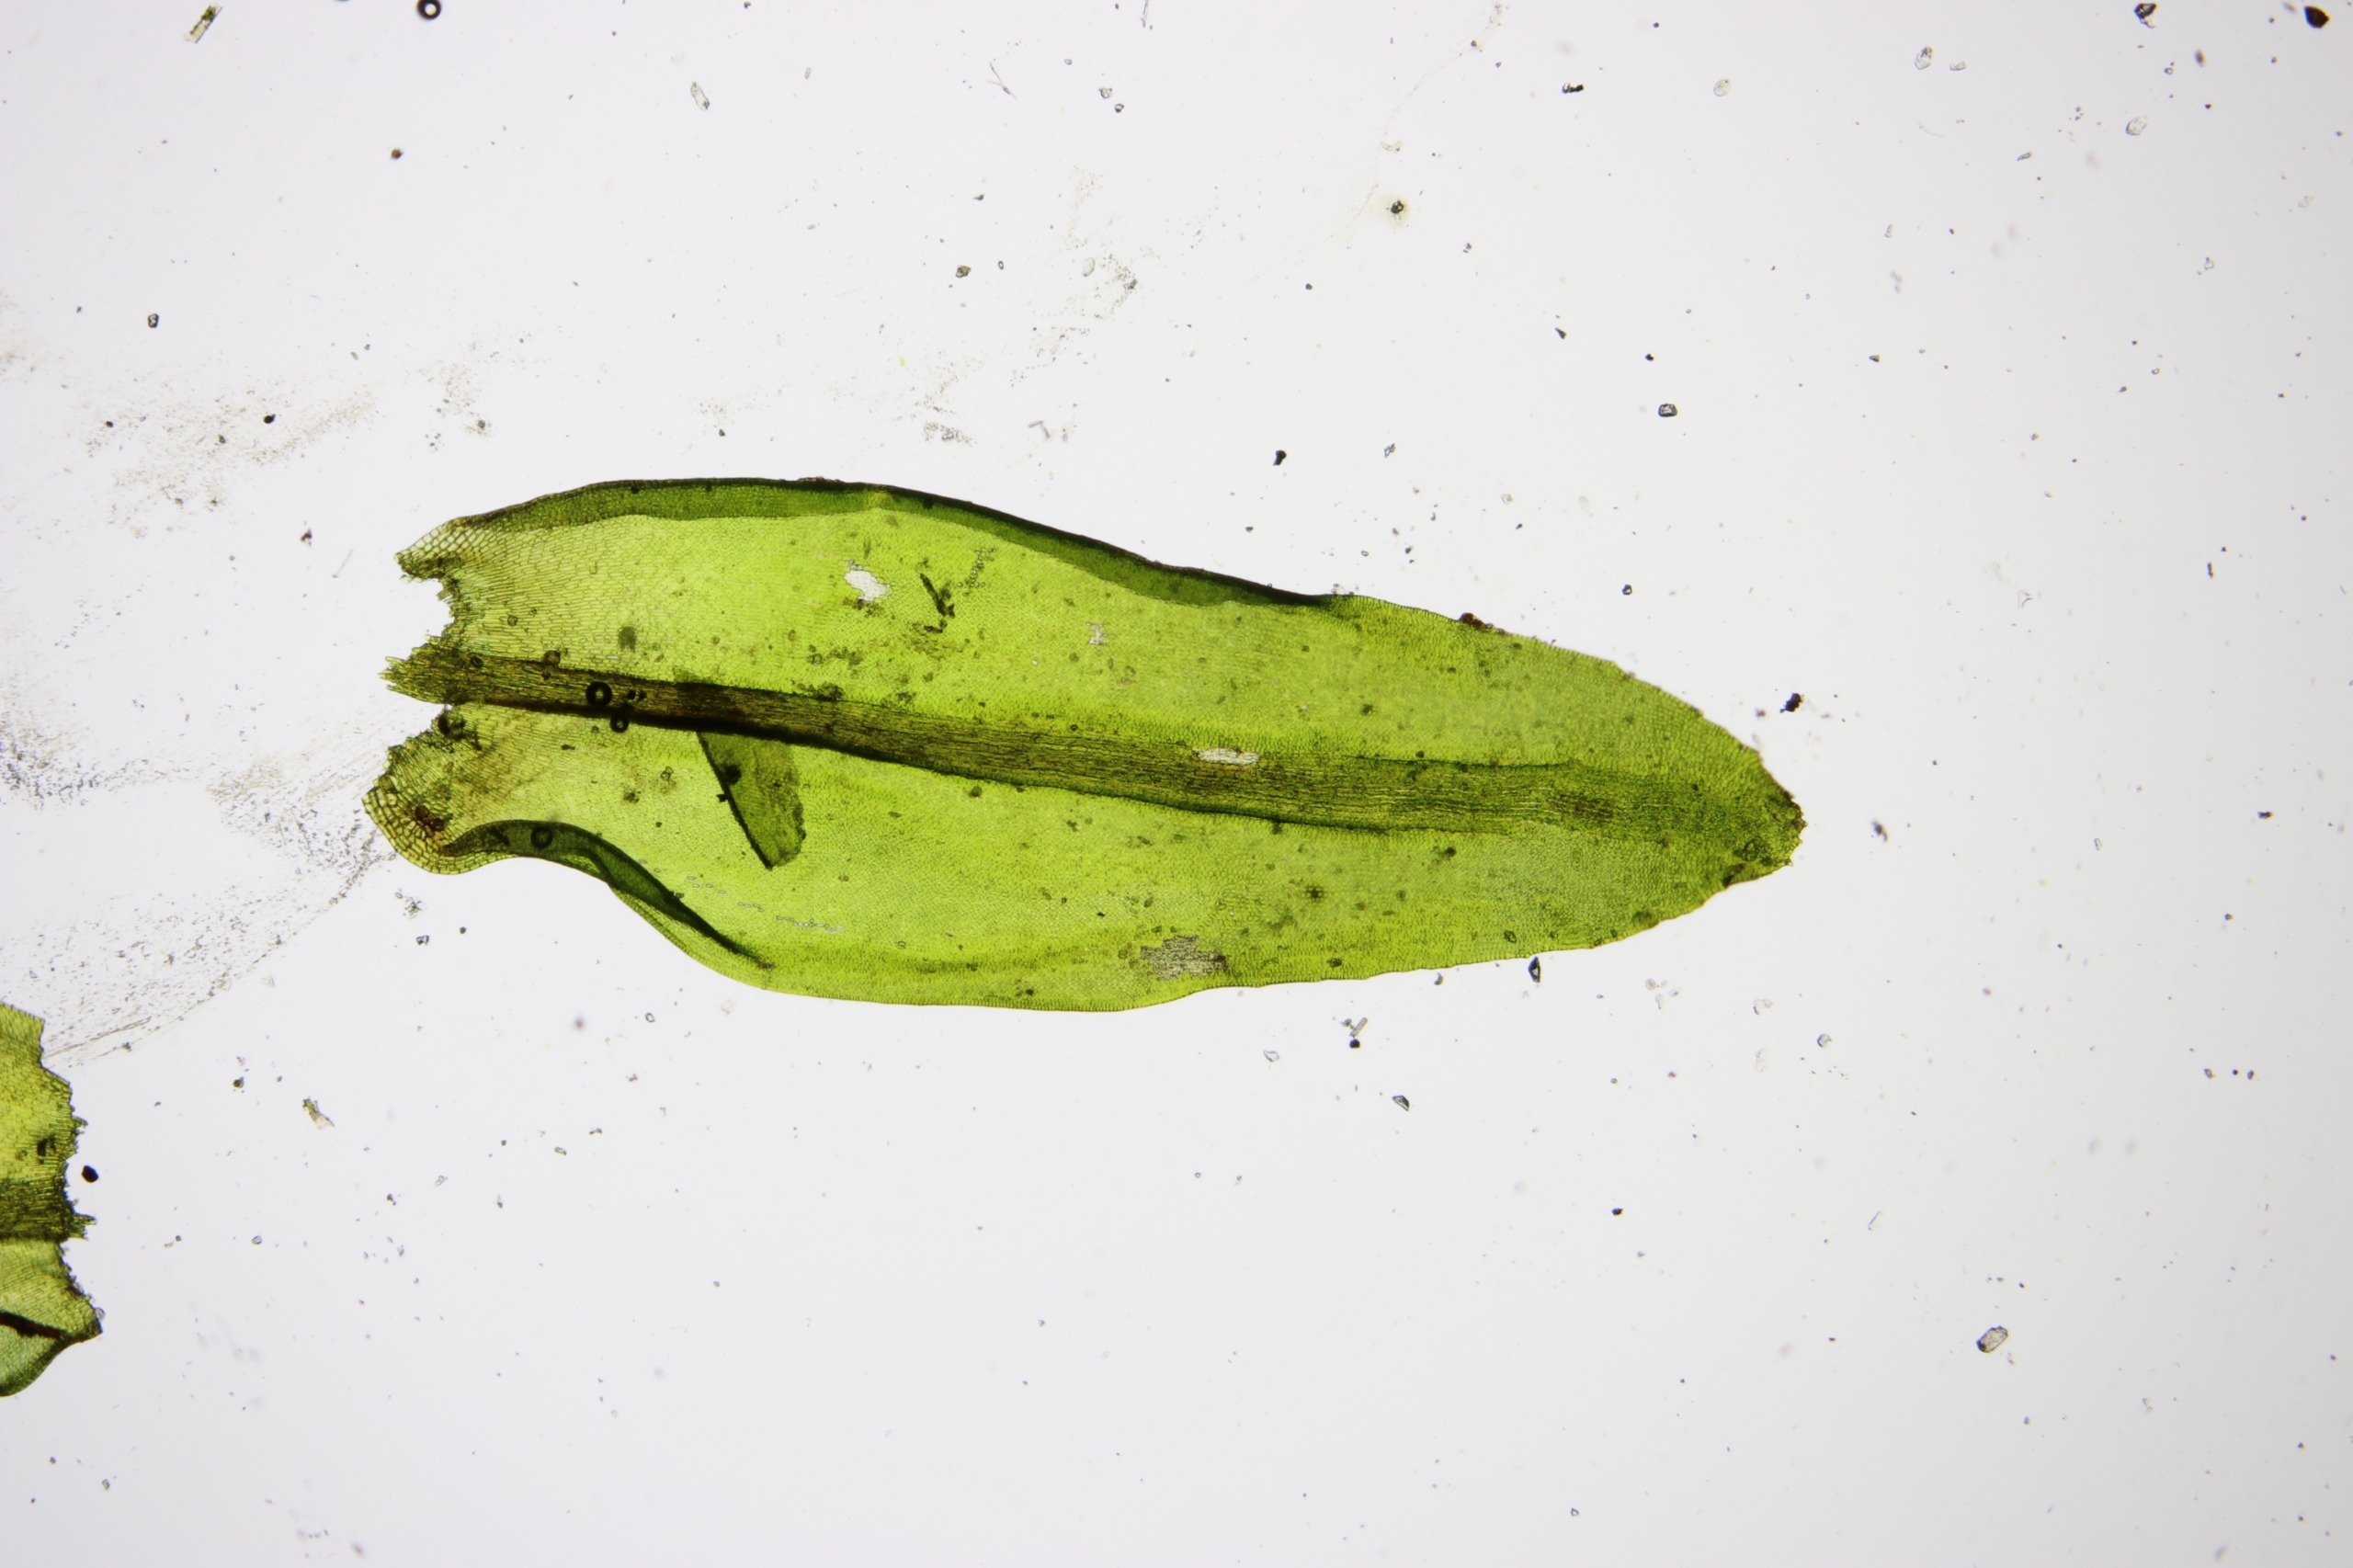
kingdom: Plantae
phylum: Bryophyta
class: Bryopsida
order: Grimmiales
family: Grimmiaceae
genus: Codriophorus
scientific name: Codriophorus acicularis
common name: Butbladet børstemos
